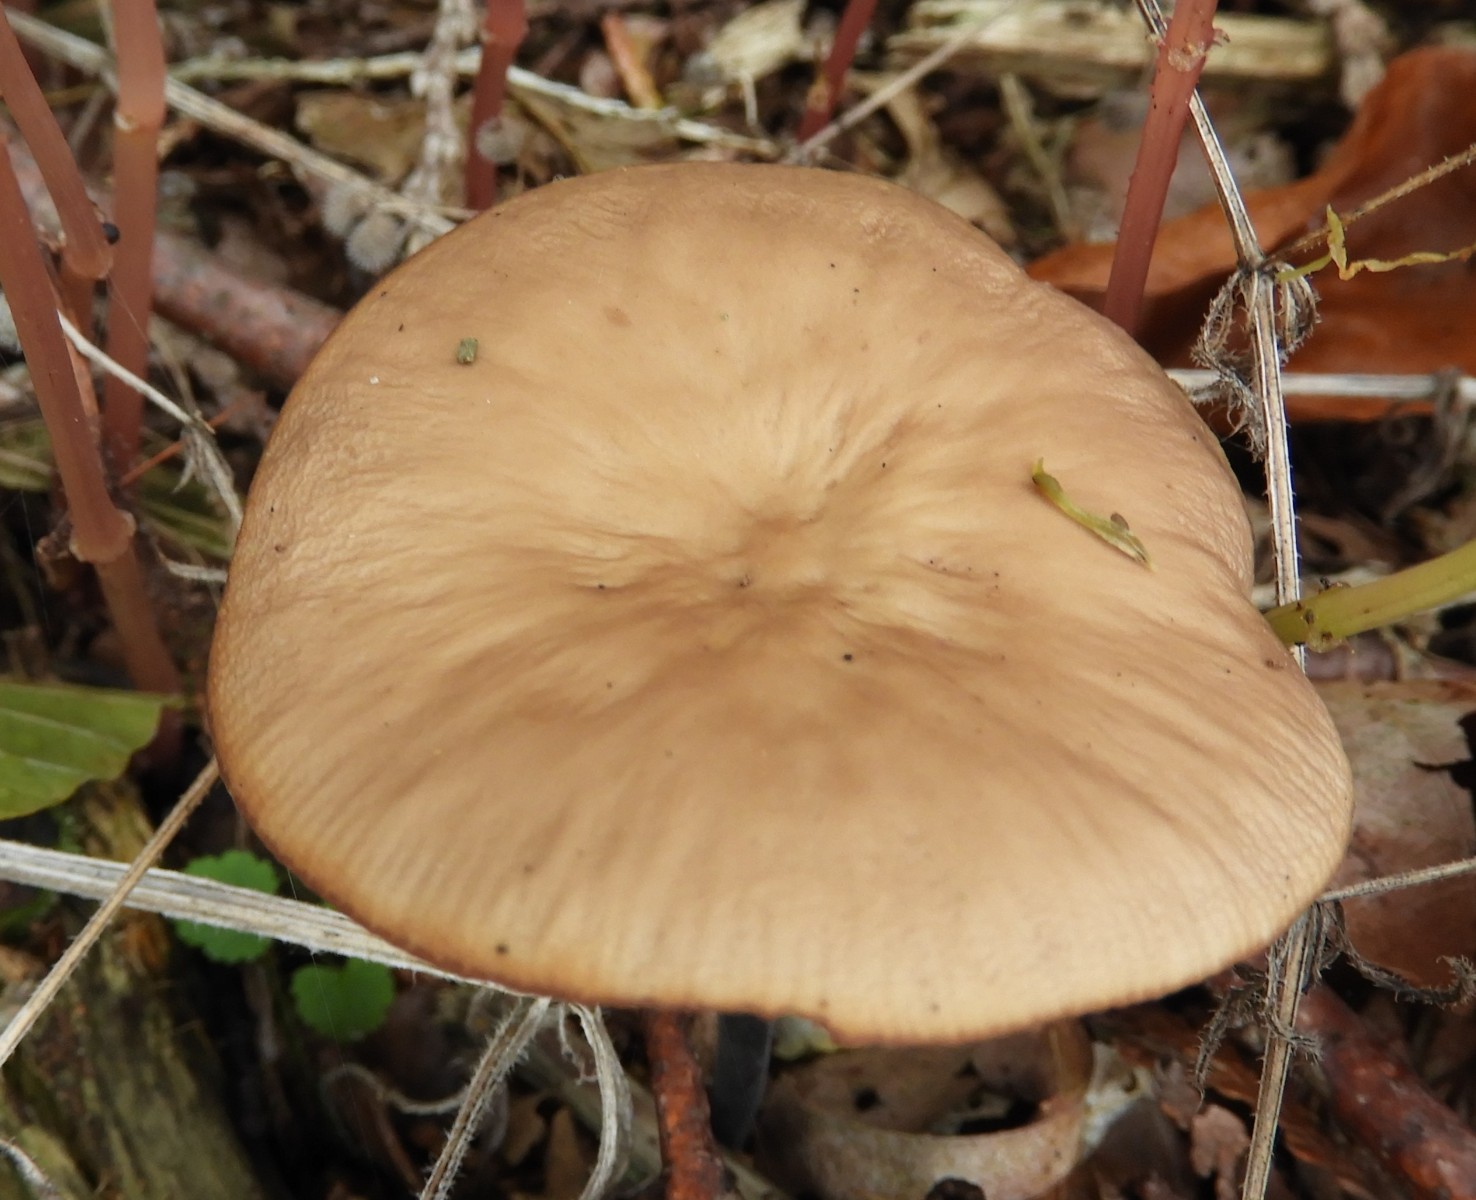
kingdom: Fungi
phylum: Basidiomycota
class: Agaricomycetes
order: Agaricales
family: Omphalotaceae
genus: Mycetinis
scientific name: Mycetinis alliaceus
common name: stor løghat
